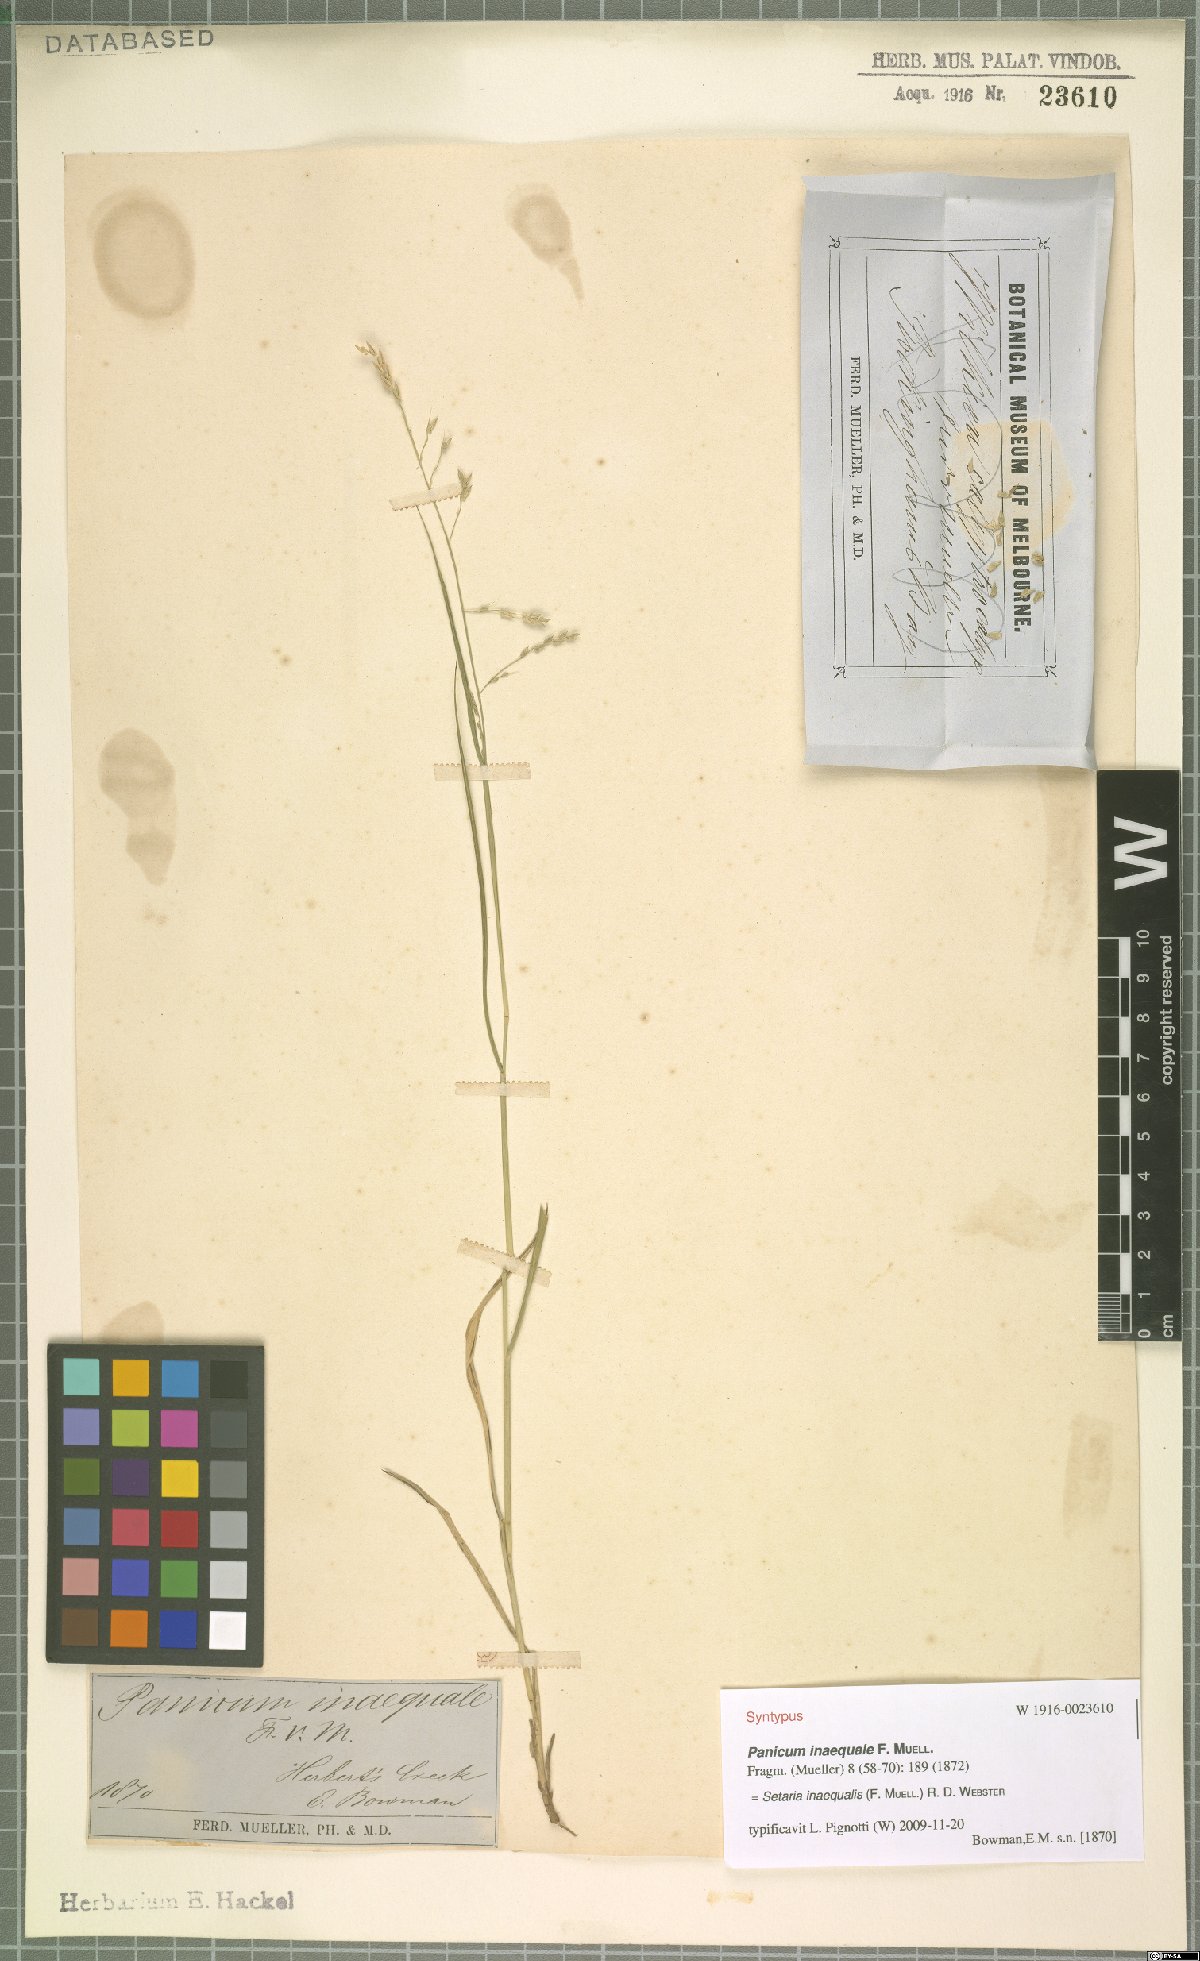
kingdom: Plantae
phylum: Tracheophyta
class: Liliopsida
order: Poales
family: Poaceae
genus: Holcolemma
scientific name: Holcolemma dispar
